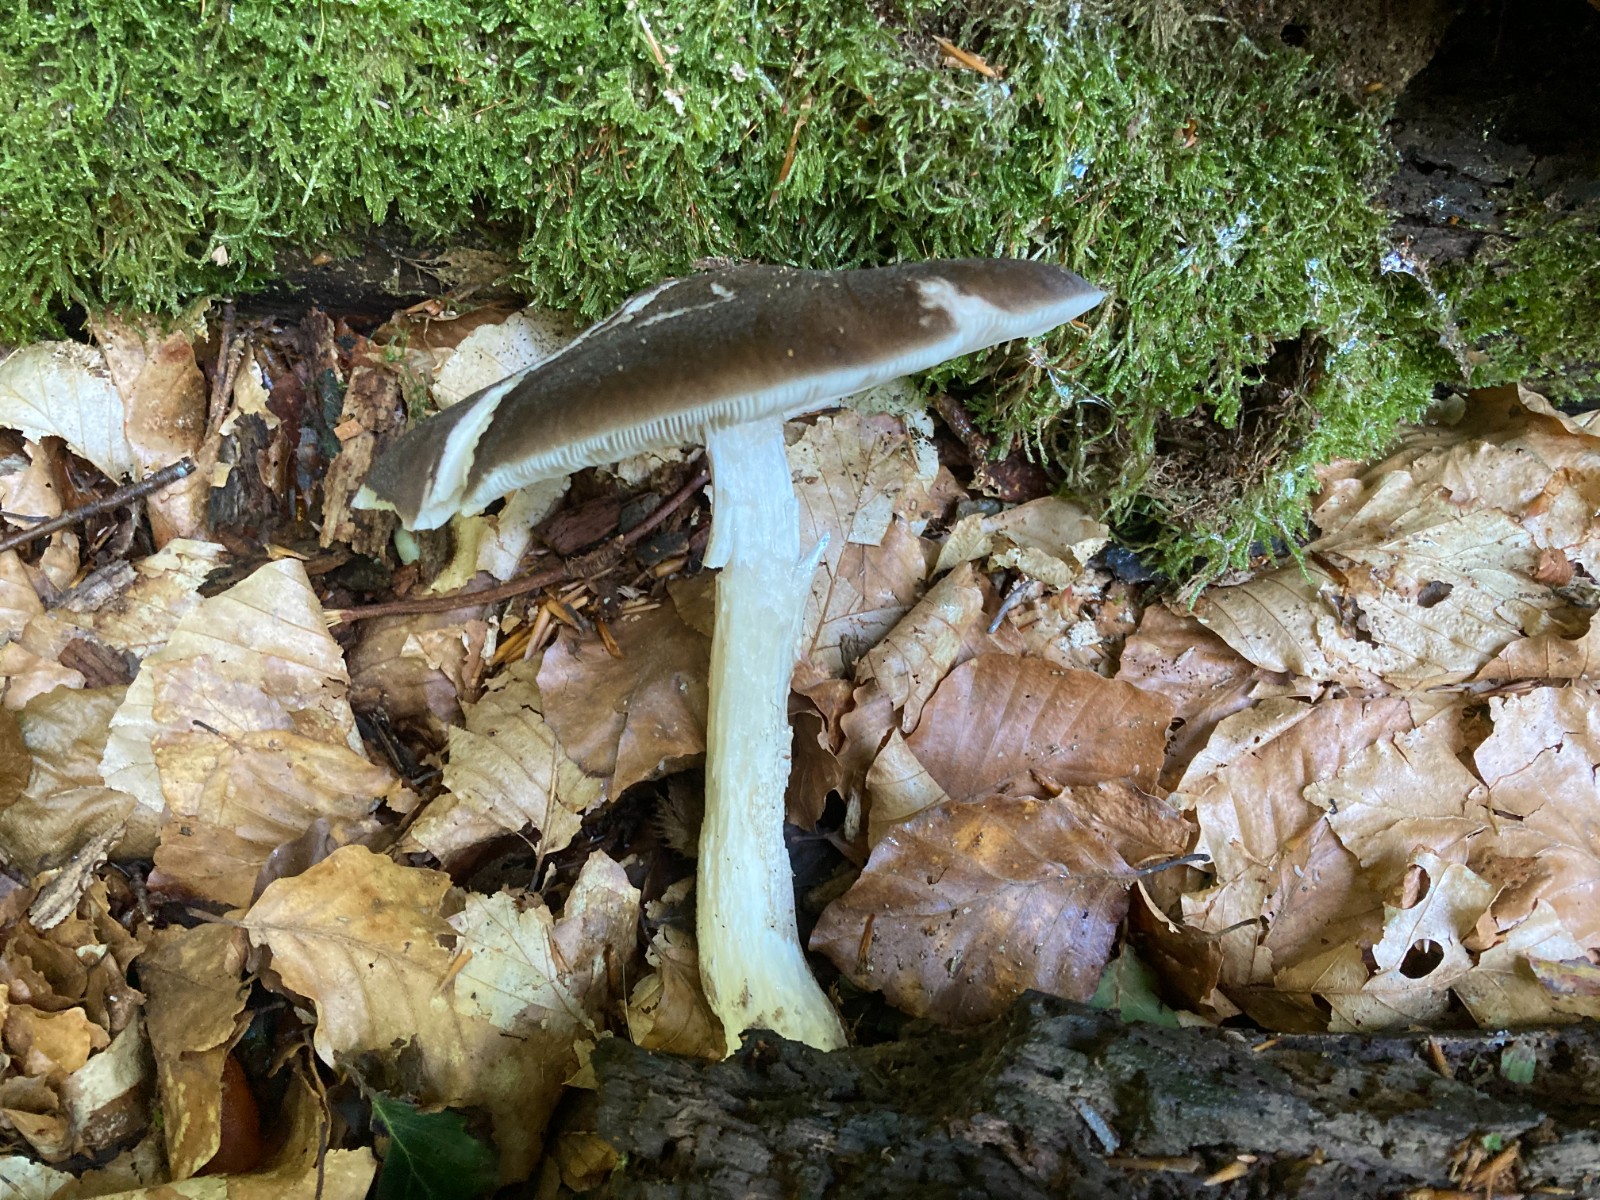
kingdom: Fungi
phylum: Basidiomycota
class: Agaricomycetes
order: Agaricales
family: Pluteaceae
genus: Pluteus
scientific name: Pluteus cervinus
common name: sodfarvet skærmhat
